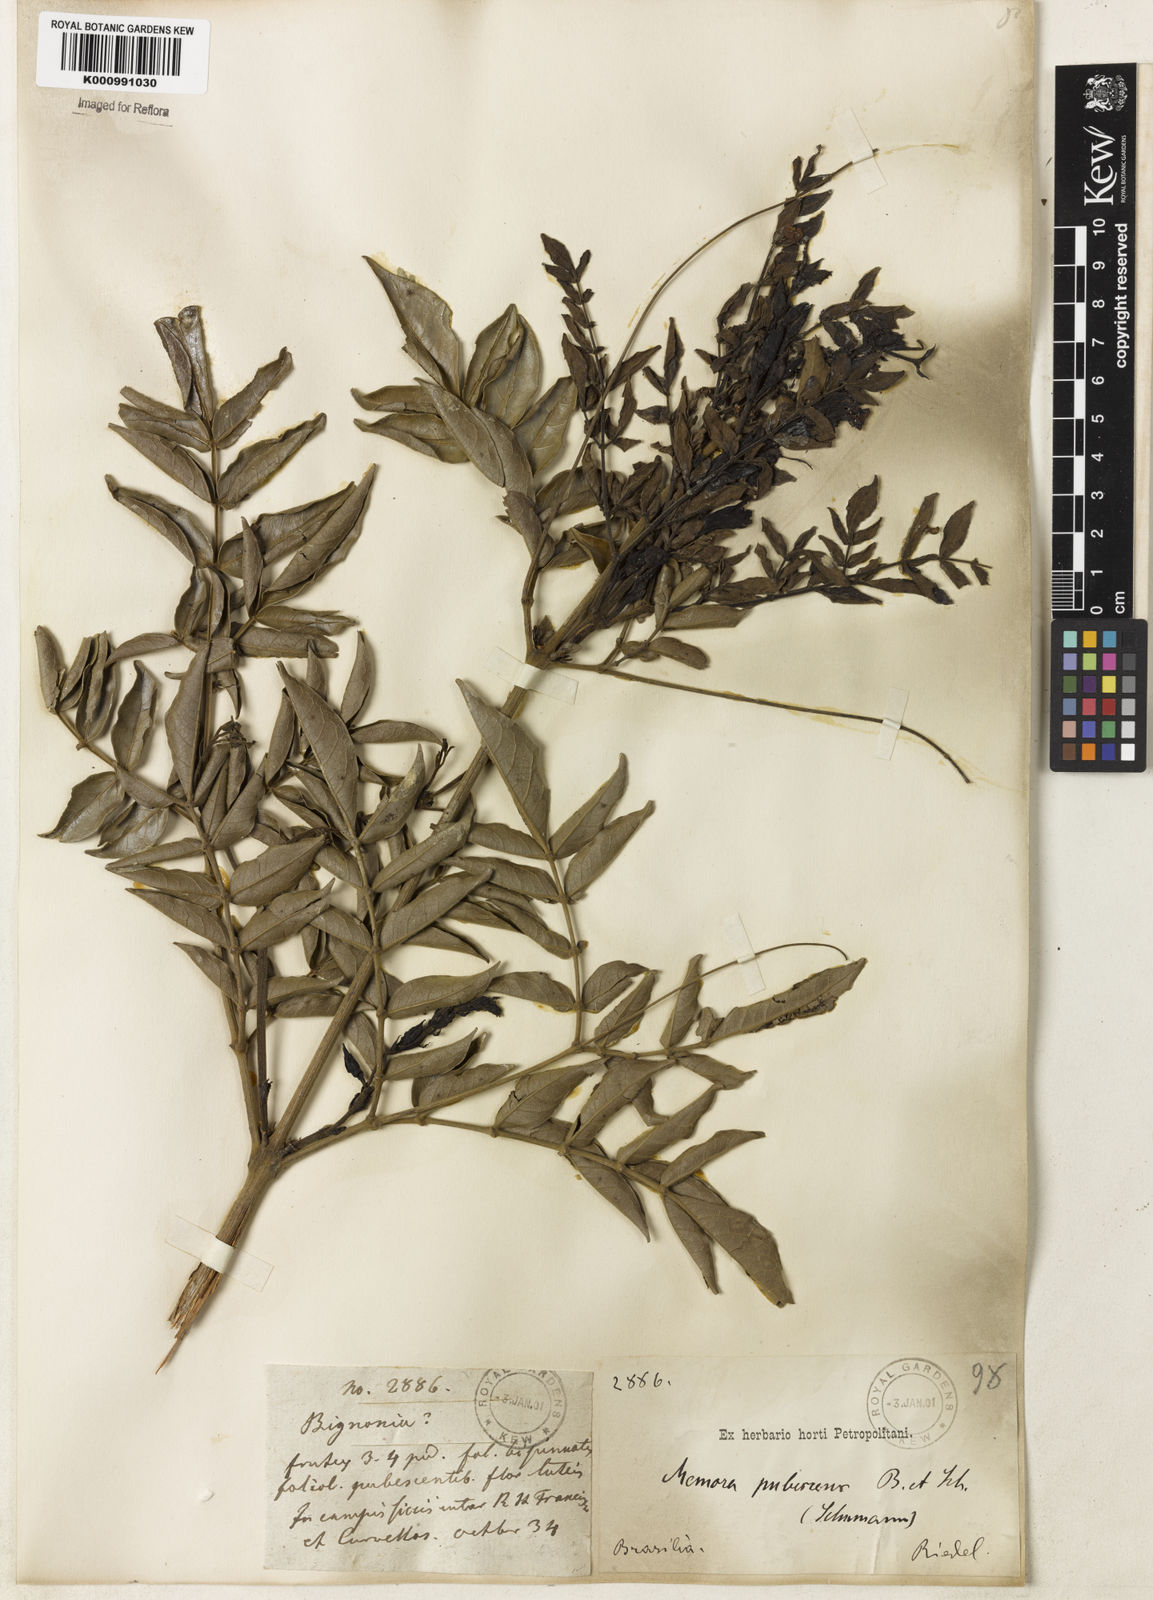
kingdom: Plantae
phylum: Tracheophyta
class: Magnoliopsida
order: Lamiales
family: Bignoniaceae
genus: Adenocalymma
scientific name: Adenocalymma pubescens
